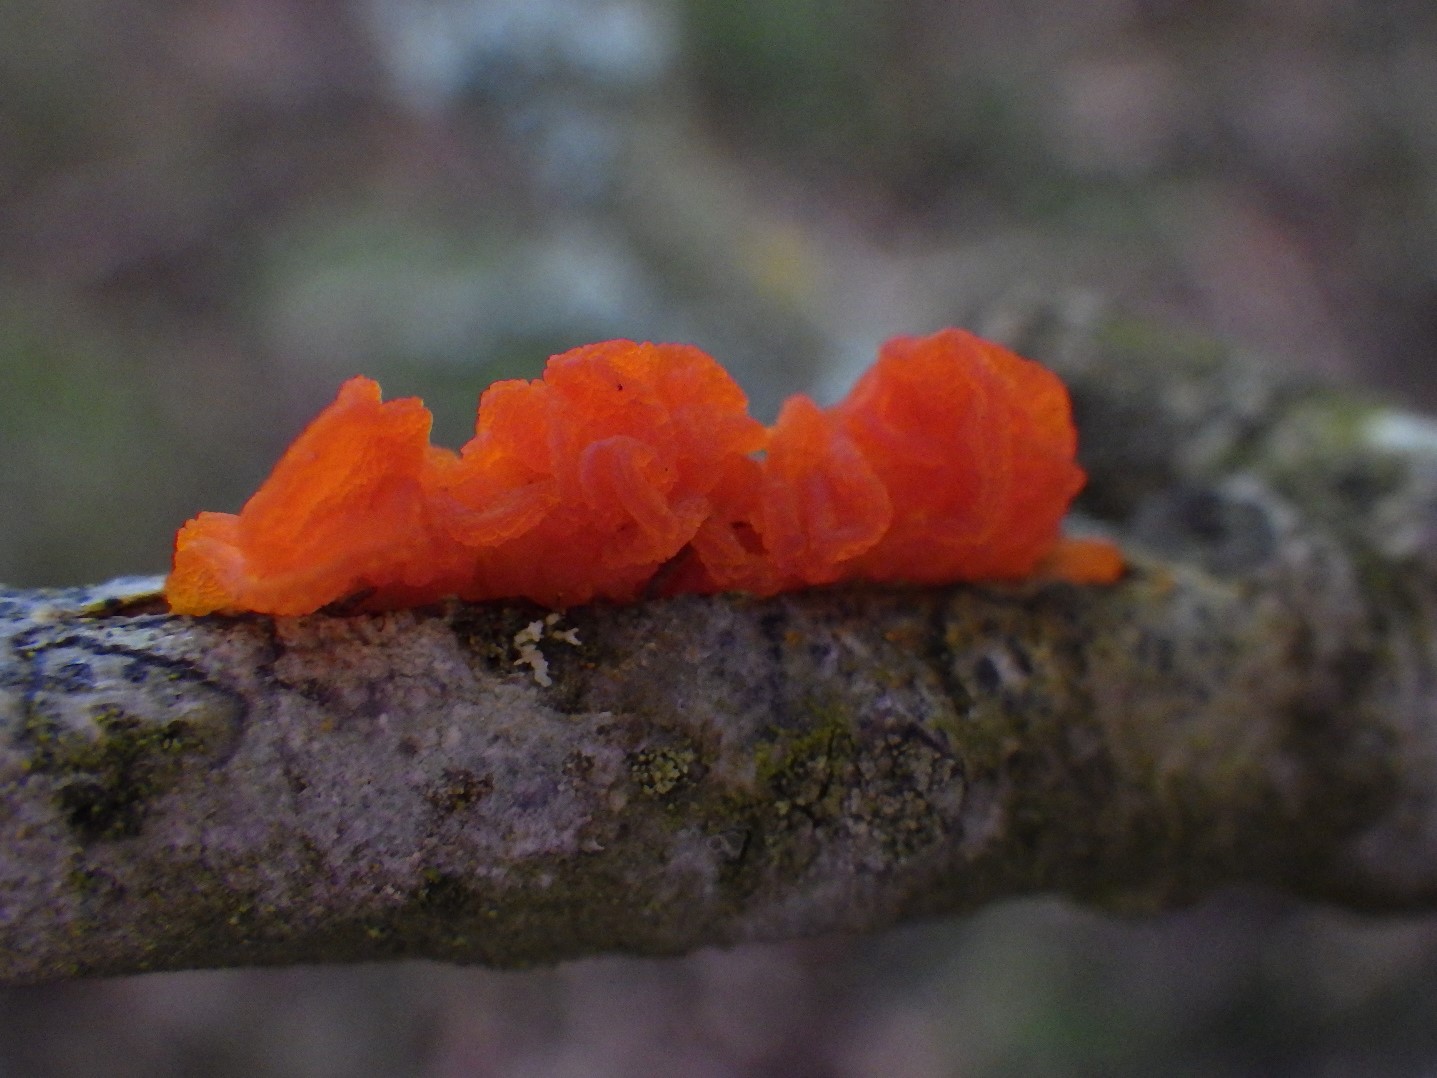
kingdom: Fungi
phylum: Basidiomycota
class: Tremellomycetes
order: Tremellales
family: Tremellaceae
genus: Tremella
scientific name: Tremella mesenterica
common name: gul bævresvamp
